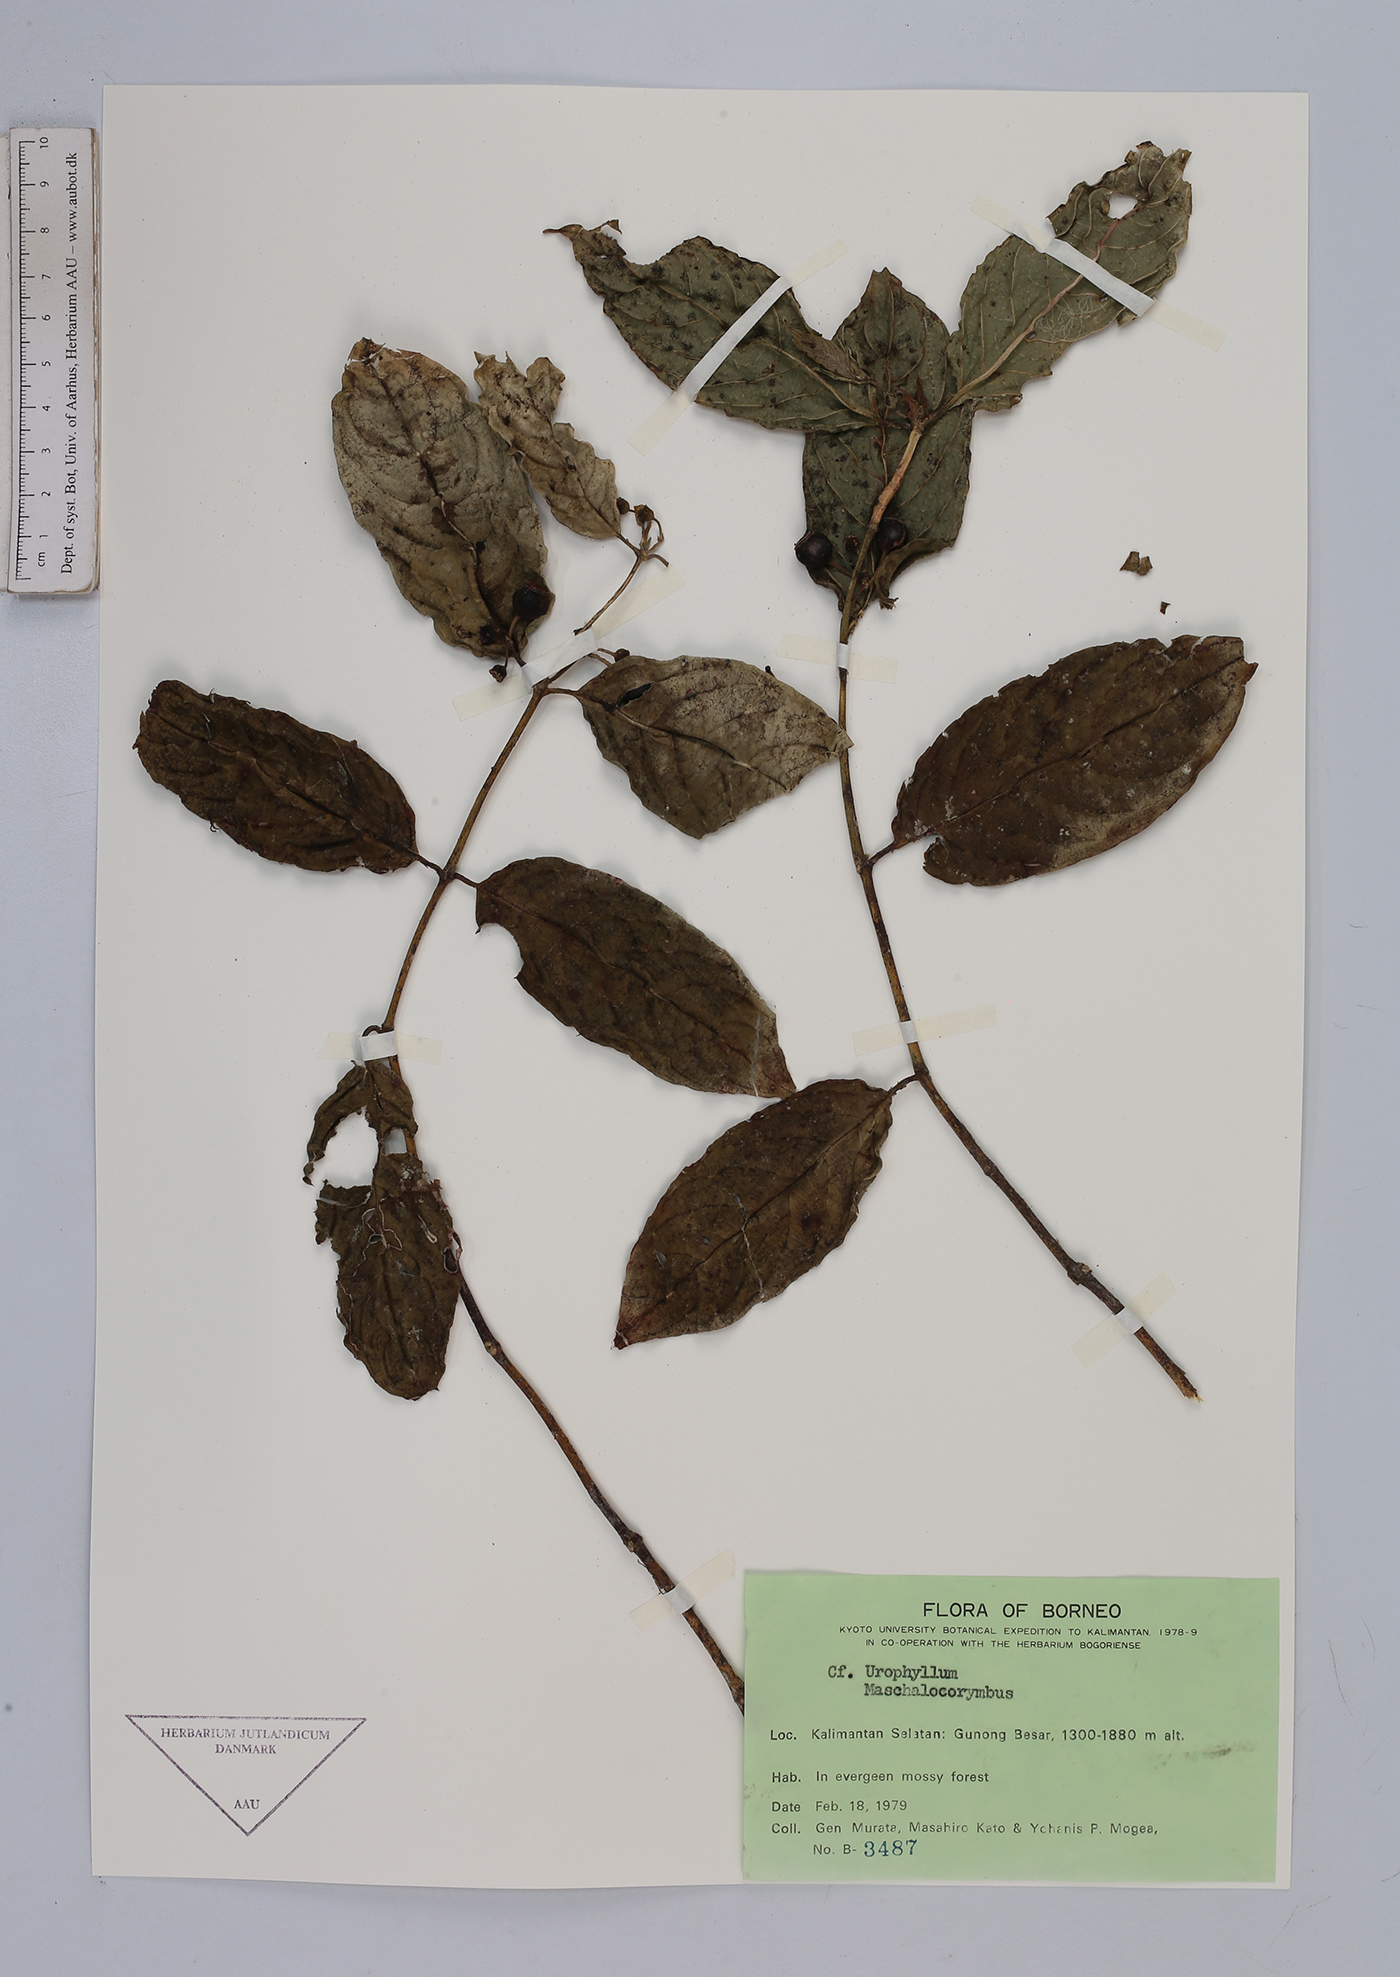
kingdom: Plantae
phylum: Tracheophyta
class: Magnoliopsida
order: Gentianales
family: Rubiaceae
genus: Urophyllum
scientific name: Urophyllum
